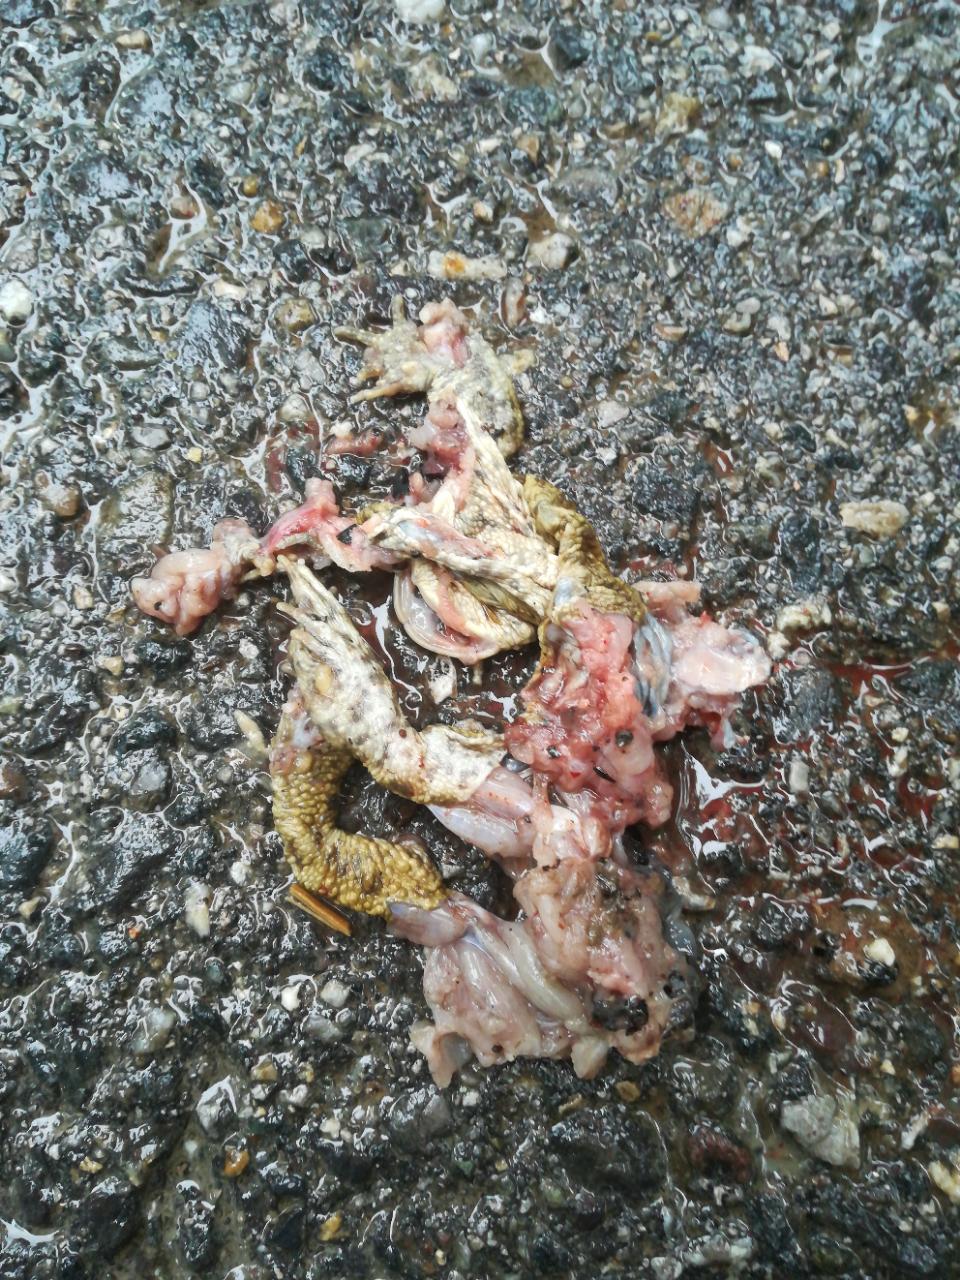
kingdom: Animalia
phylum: Chordata
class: Amphibia
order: Anura
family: Bufonidae
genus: Bufo
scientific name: Bufo bufo
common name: Common toad
